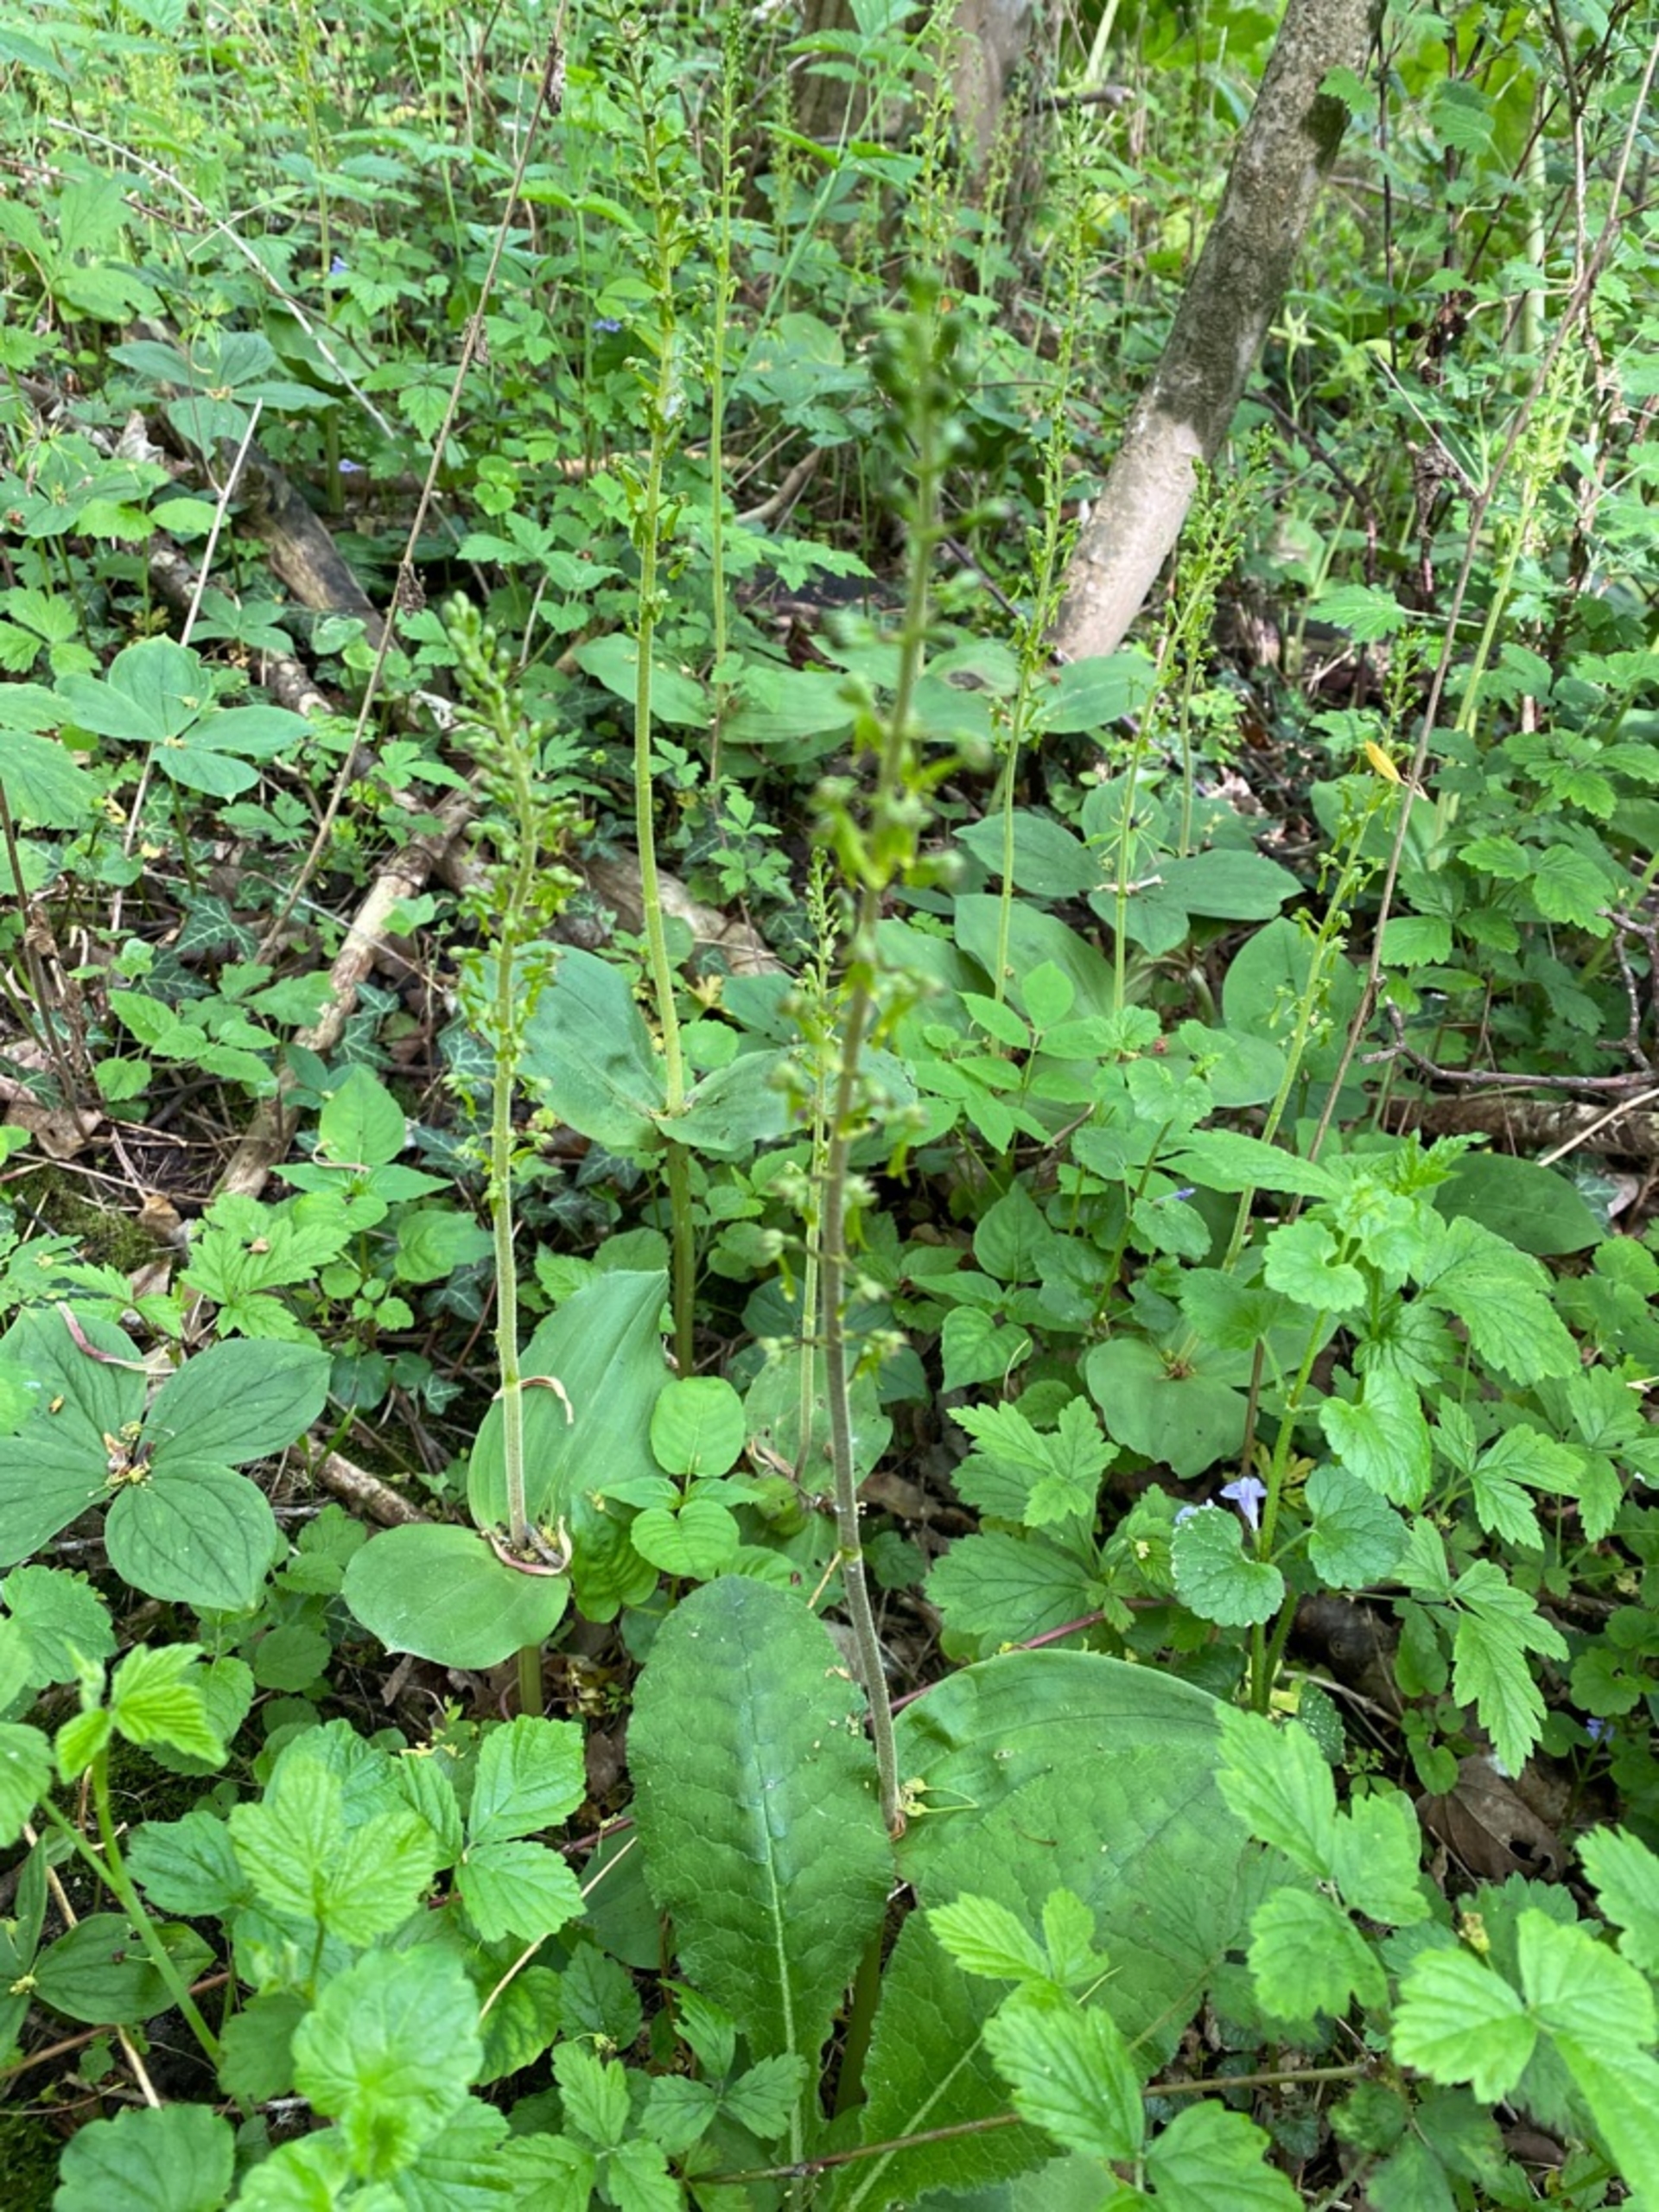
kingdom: Plantae
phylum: Tracheophyta
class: Liliopsida
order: Asparagales
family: Orchidaceae
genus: Neottia
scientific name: Neottia ovata
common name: Ægbladet fliglæbe
